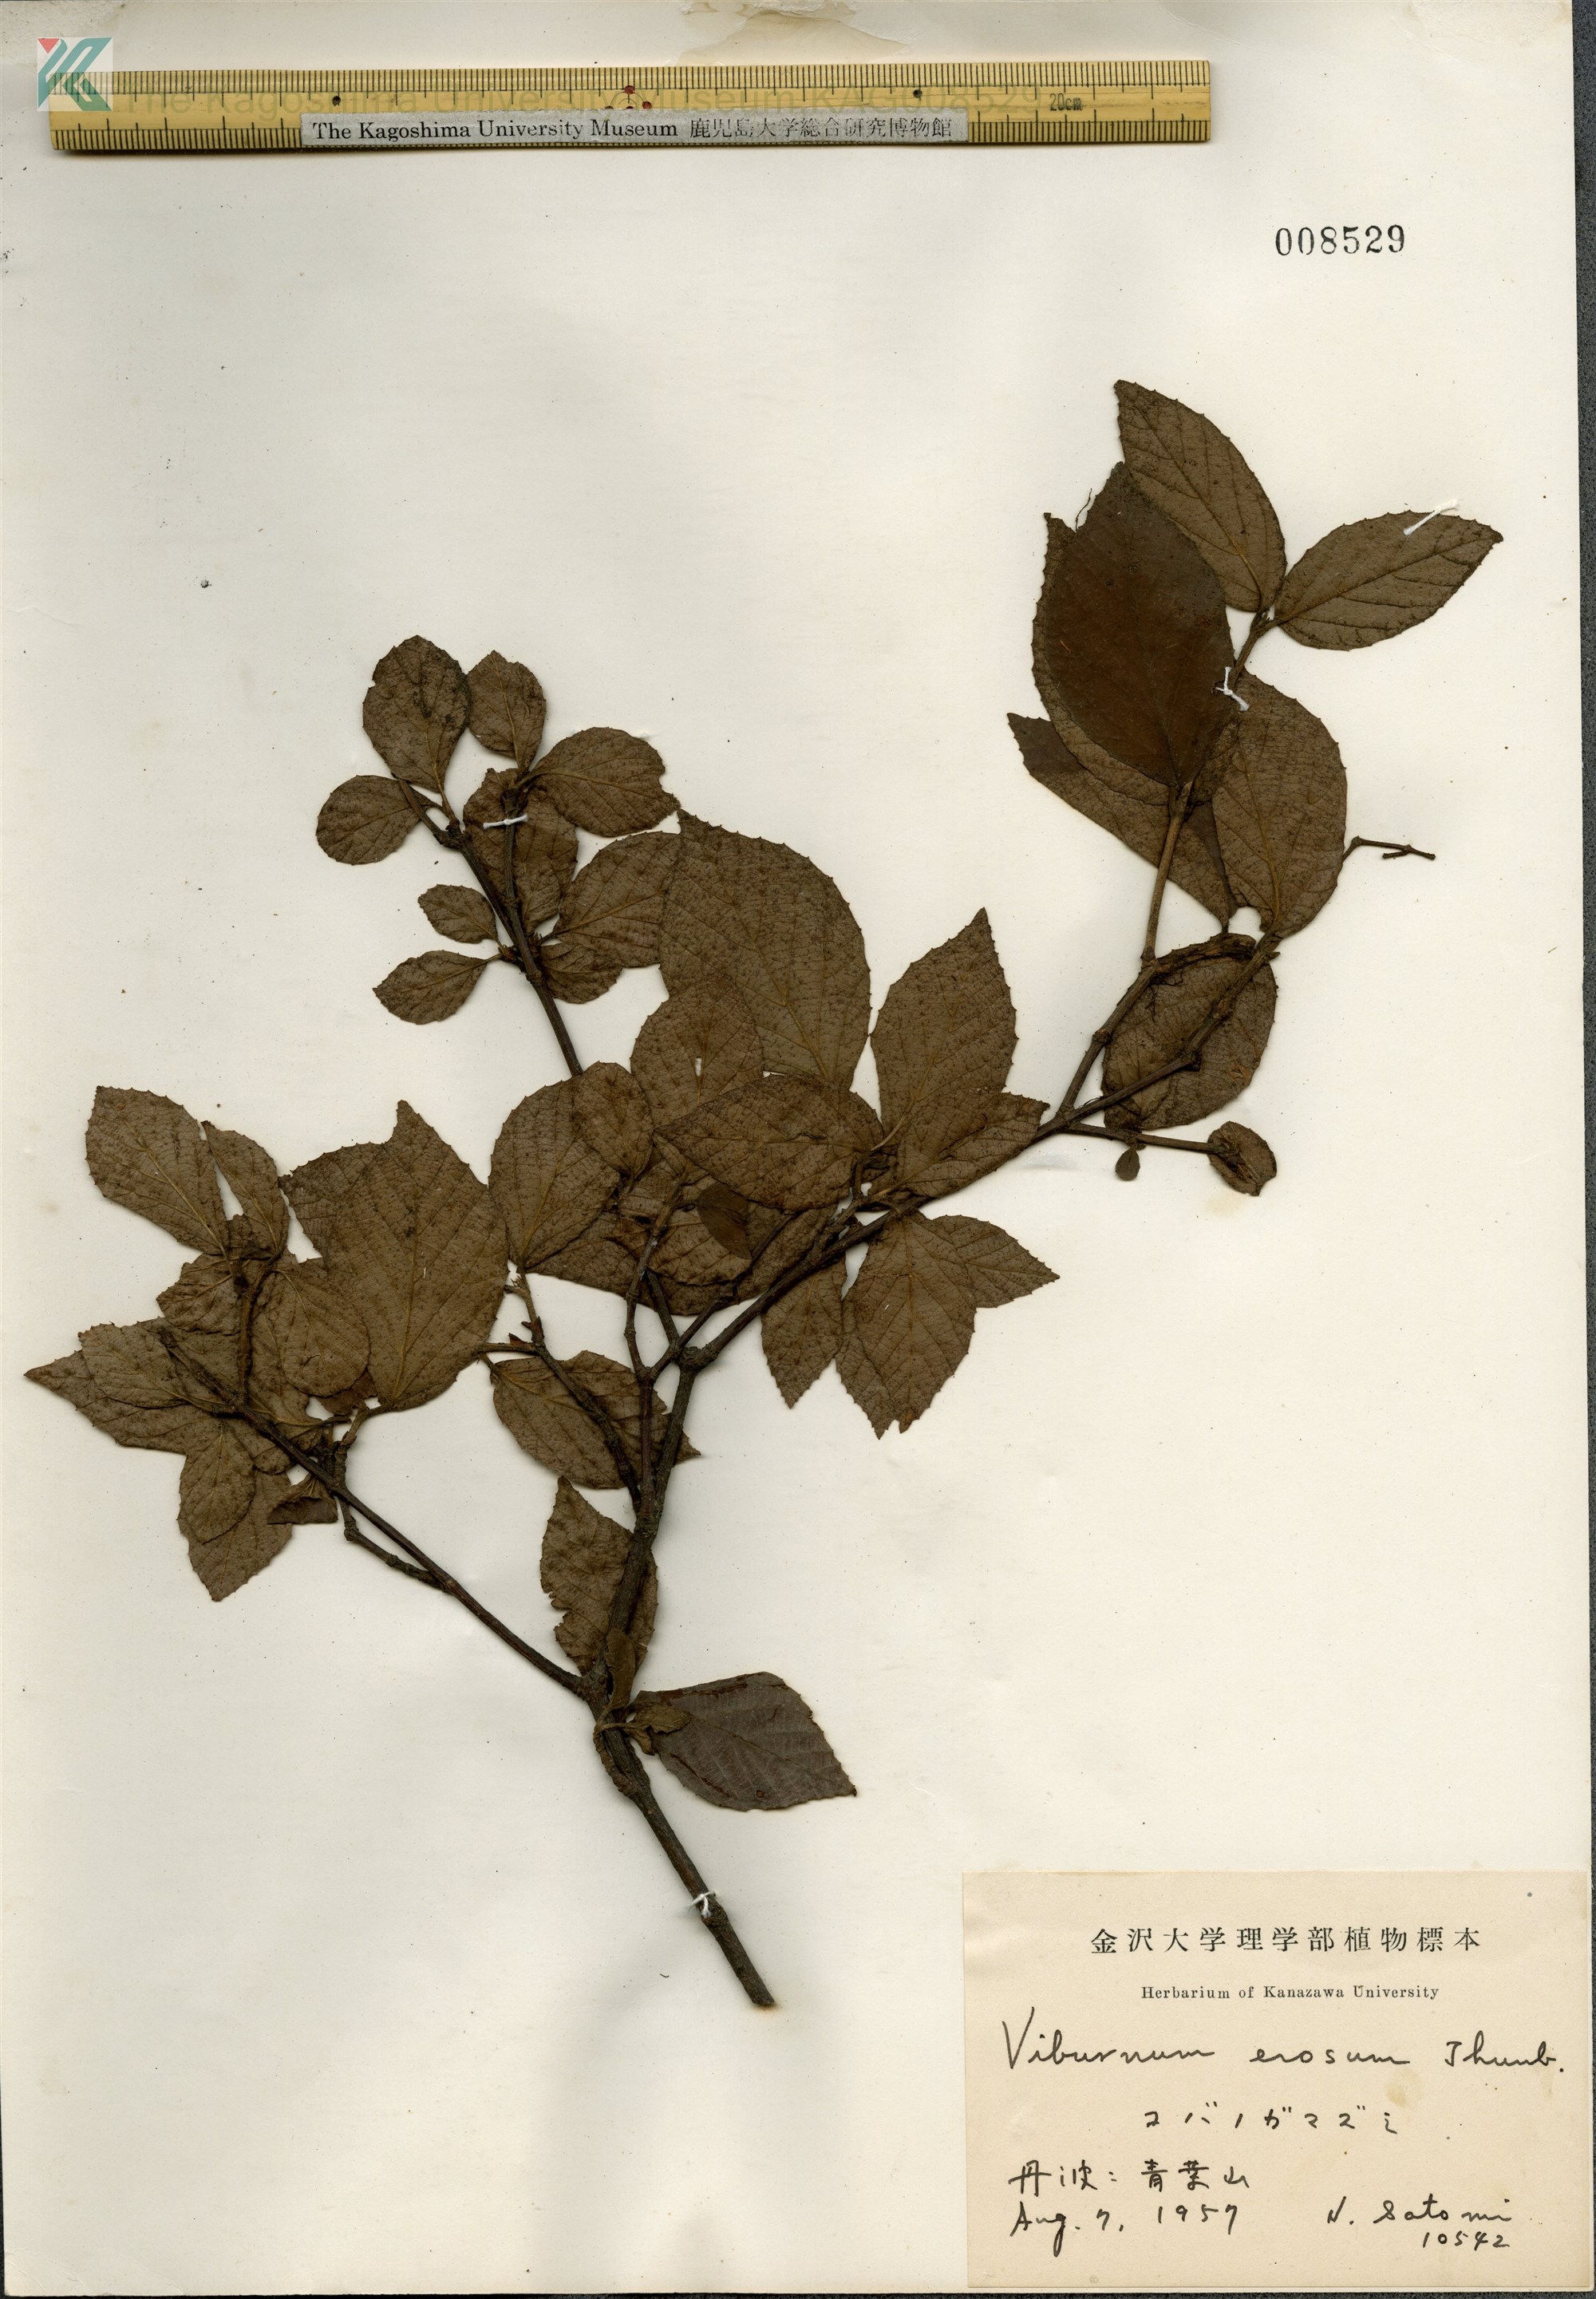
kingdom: Plantae
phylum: Tracheophyta
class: Magnoliopsida
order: Dipsacales
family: Viburnaceae
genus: Viburnum
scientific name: Viburnum erosum
